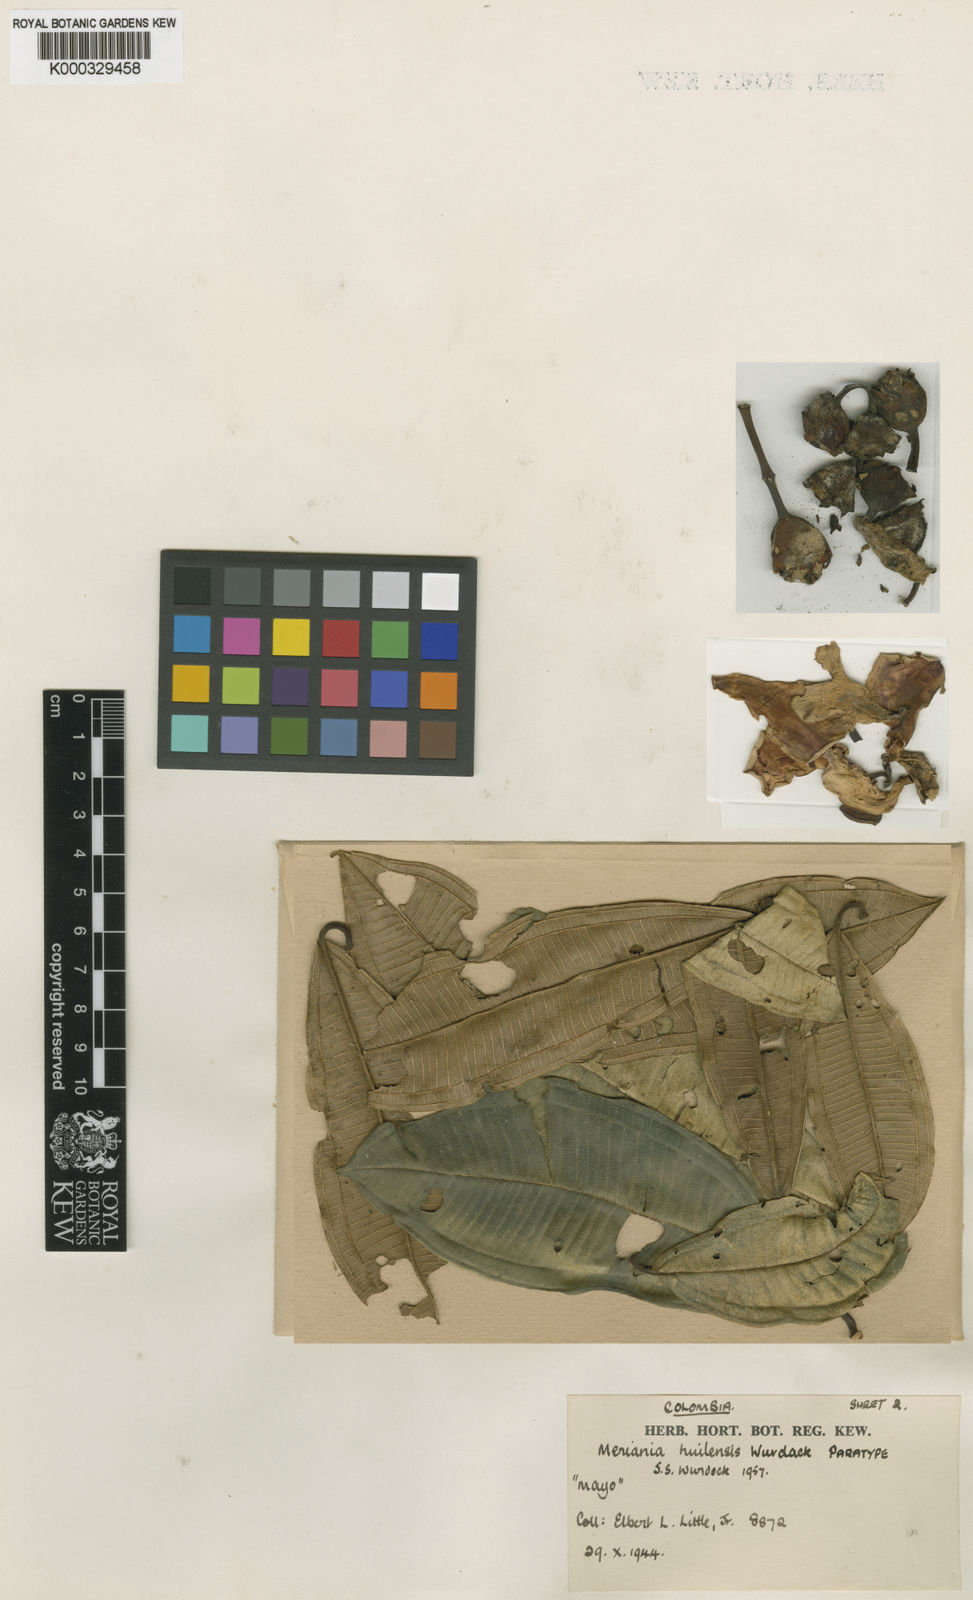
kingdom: Plantae
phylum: Tracheophyta
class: Magnoliopsida
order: Myrtales
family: Melastomataceae
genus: Meriania
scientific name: Meriania huilensis
